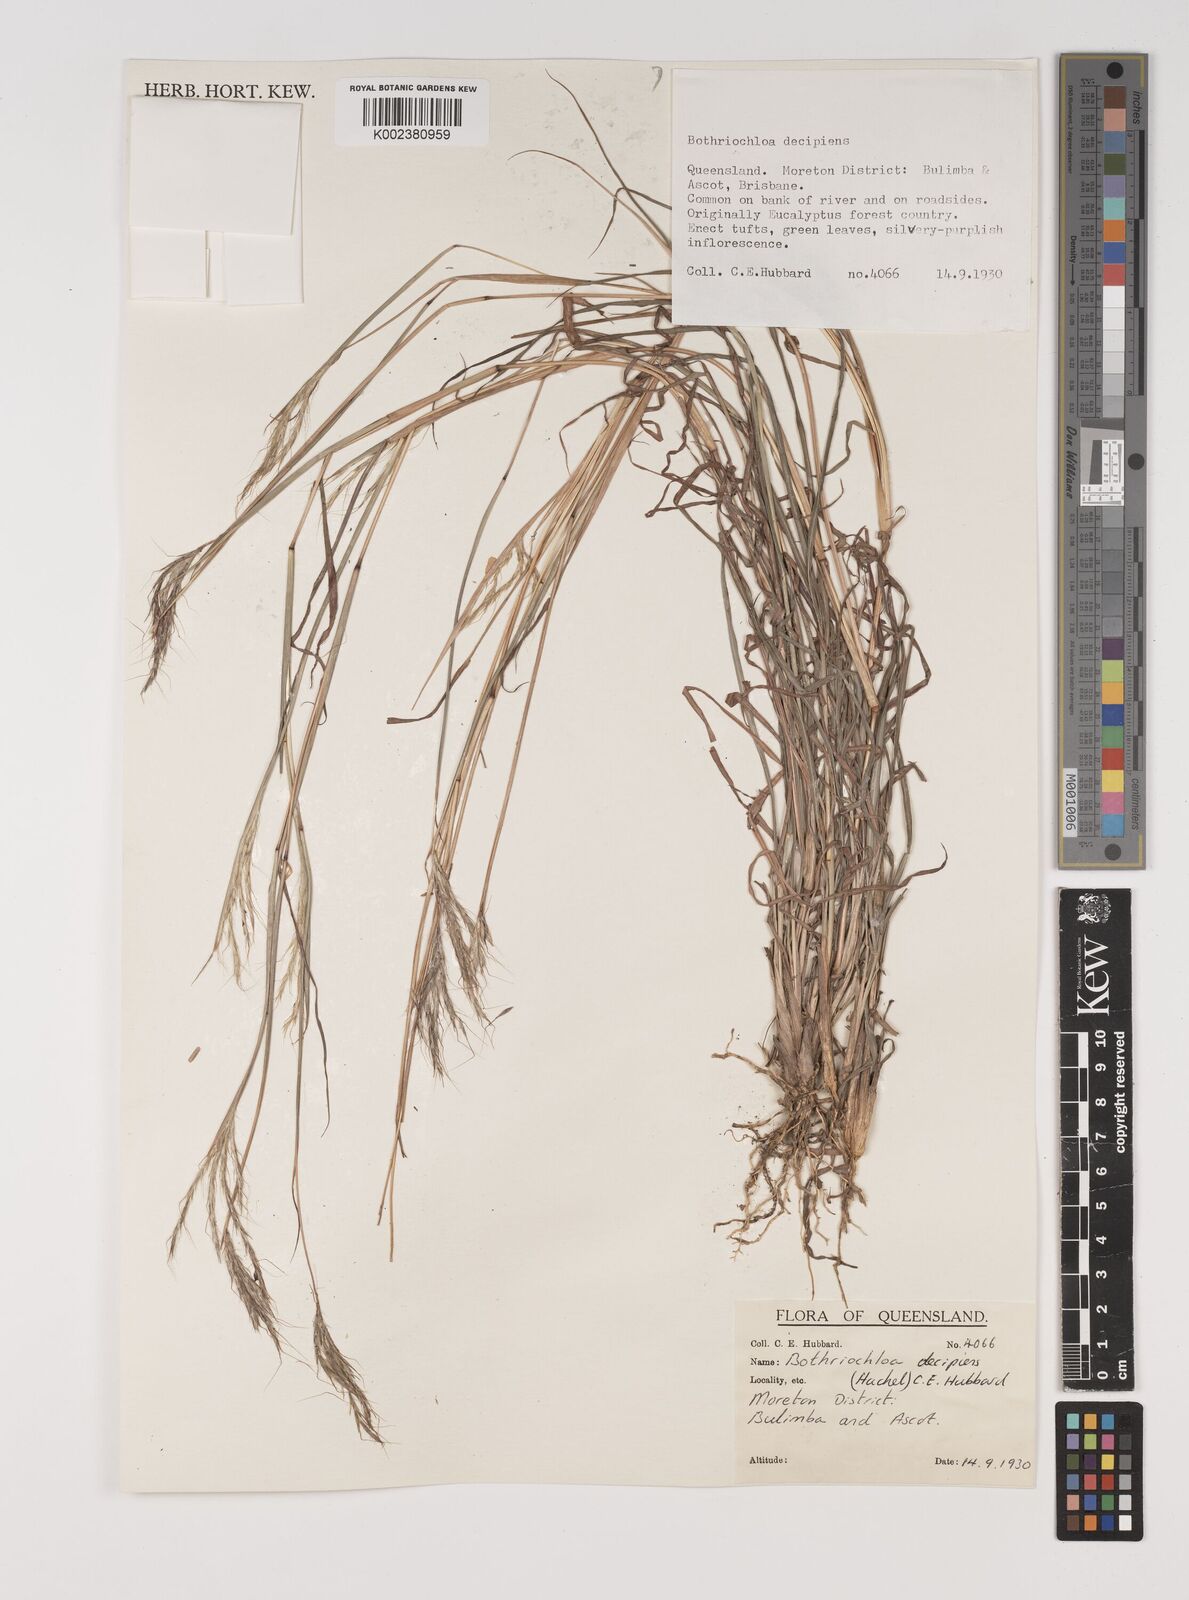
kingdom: Plantae
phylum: Tracheophyta
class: Liliopsida
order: Poales
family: Poaceae
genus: Bothriochloa
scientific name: Bothriochloa decipiens
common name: Pitted-bluegrass
